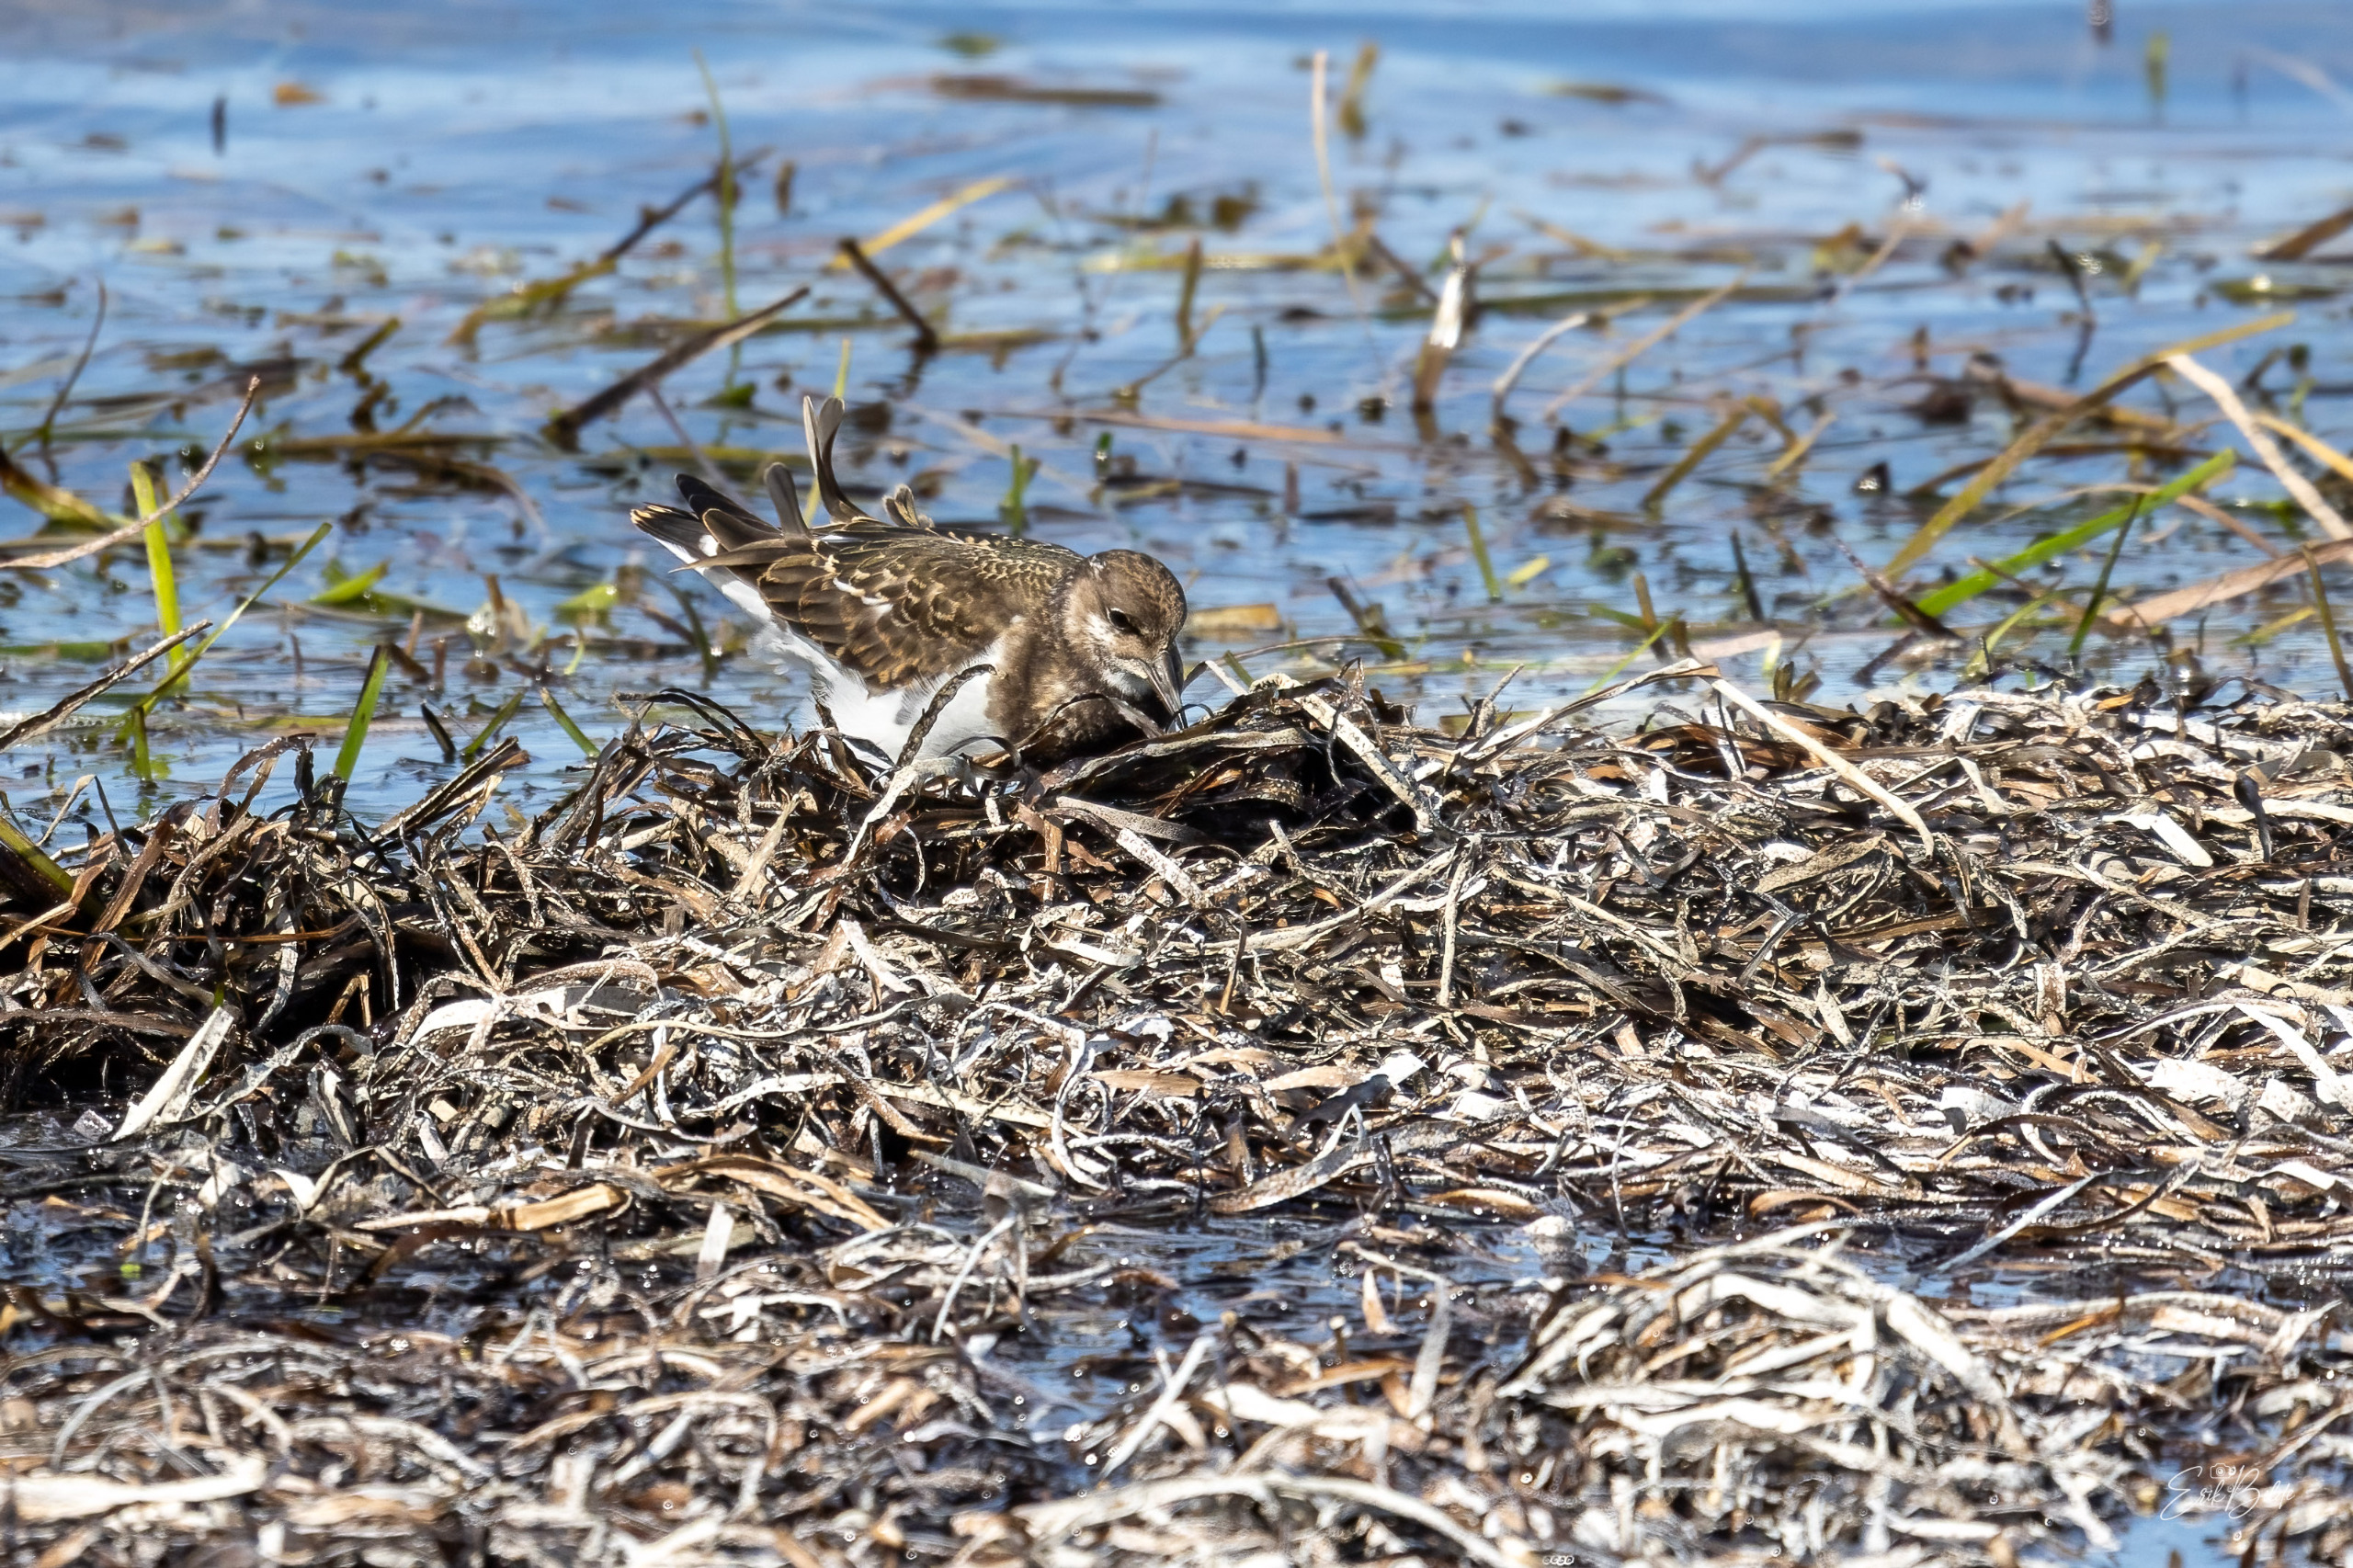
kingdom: Animalia
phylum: Chordata
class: Aves
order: Charadriiformes
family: Scolopacidae
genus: Arenaria
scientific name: Arenaria interpres
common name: Stenvender
